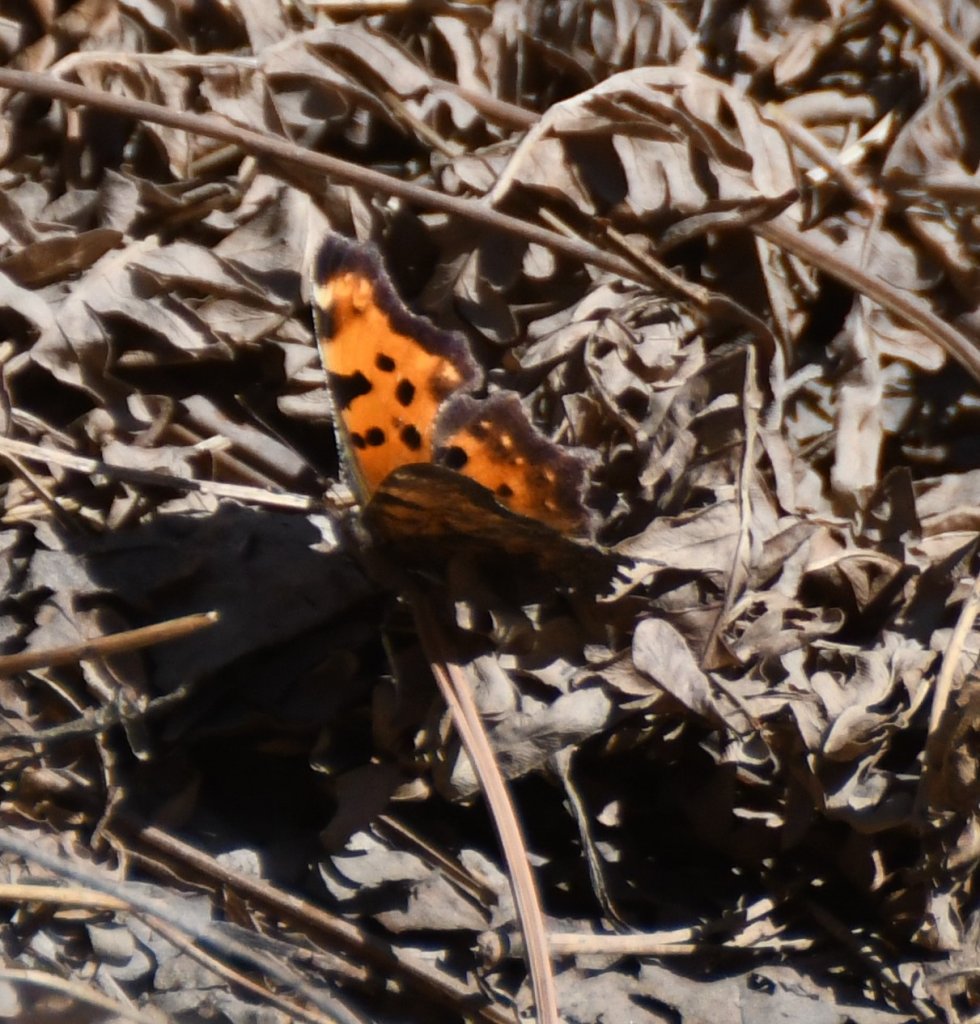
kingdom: Animalia
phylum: Arthropoda
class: Insecta
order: Lepidoptera
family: Nymphalidae
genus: Polygonia
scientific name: Polygonia faunus
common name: Green Comma
